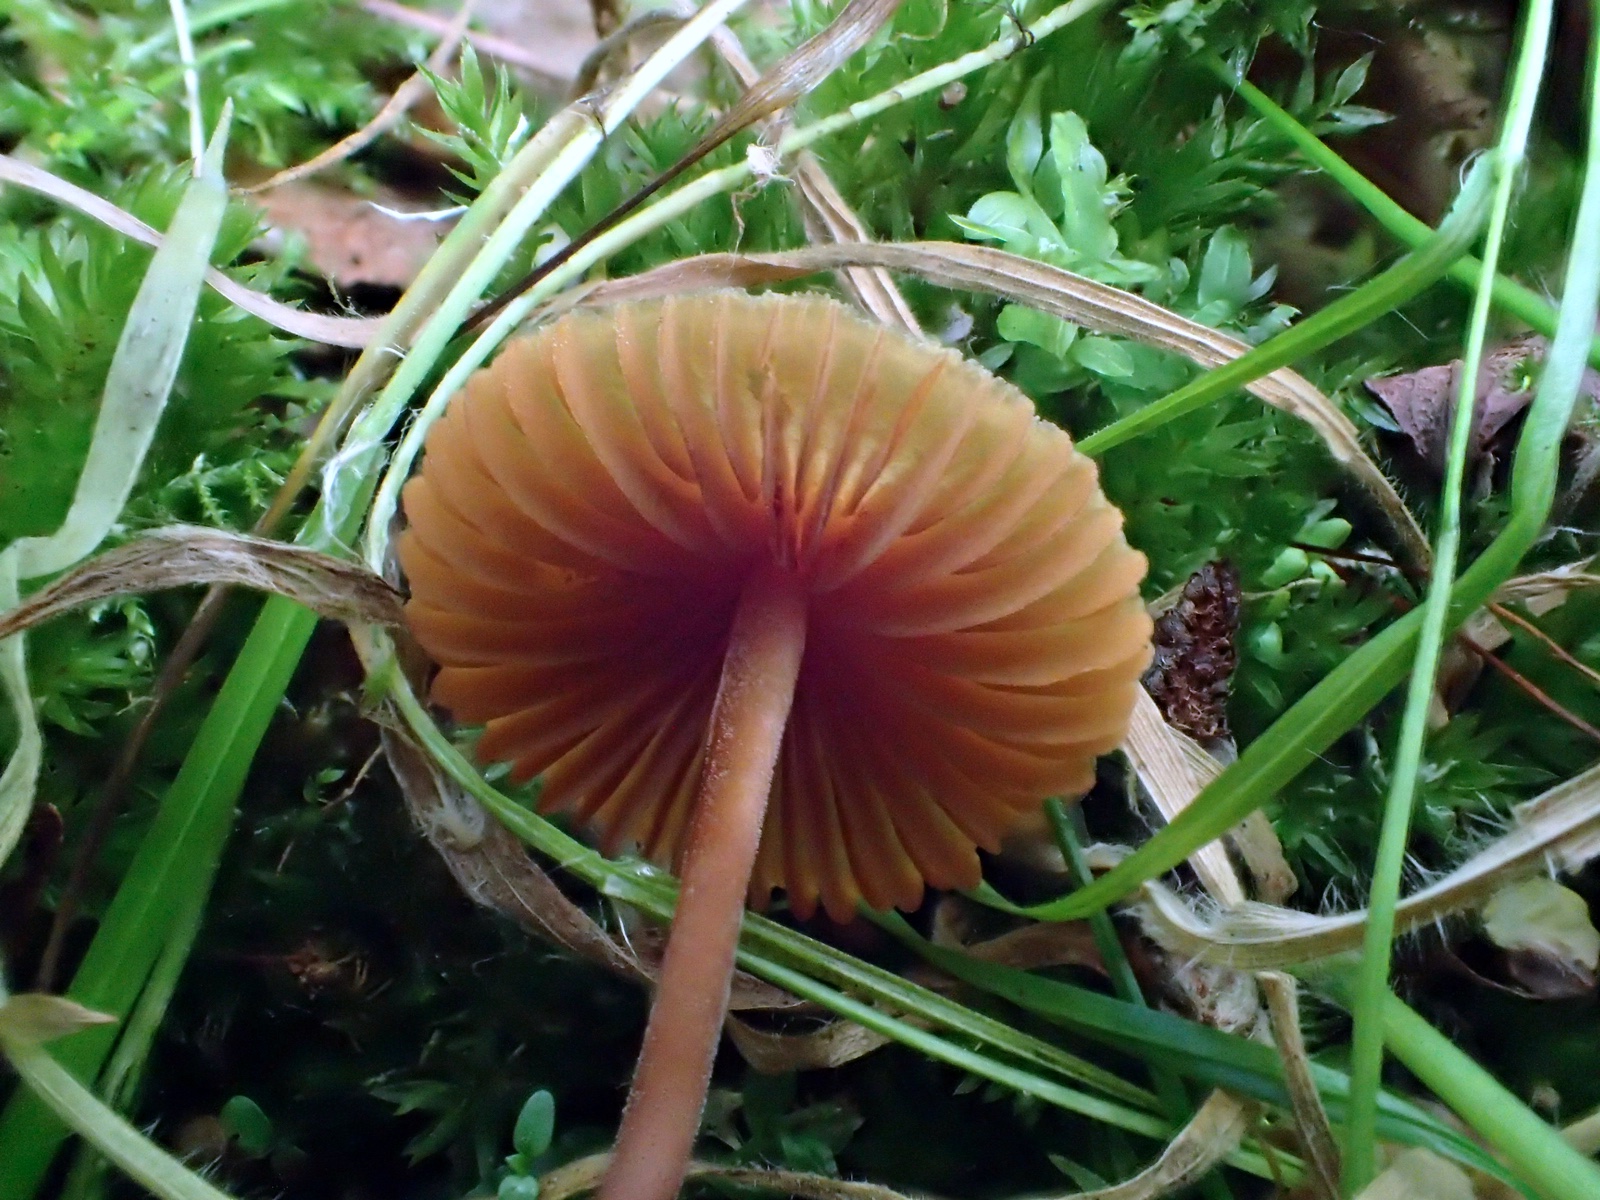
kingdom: Fungi
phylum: Basidiomycota
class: Agaricomycetes
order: Agaricales
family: Hymenogastraceae
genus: Galerina
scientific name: Galerina
